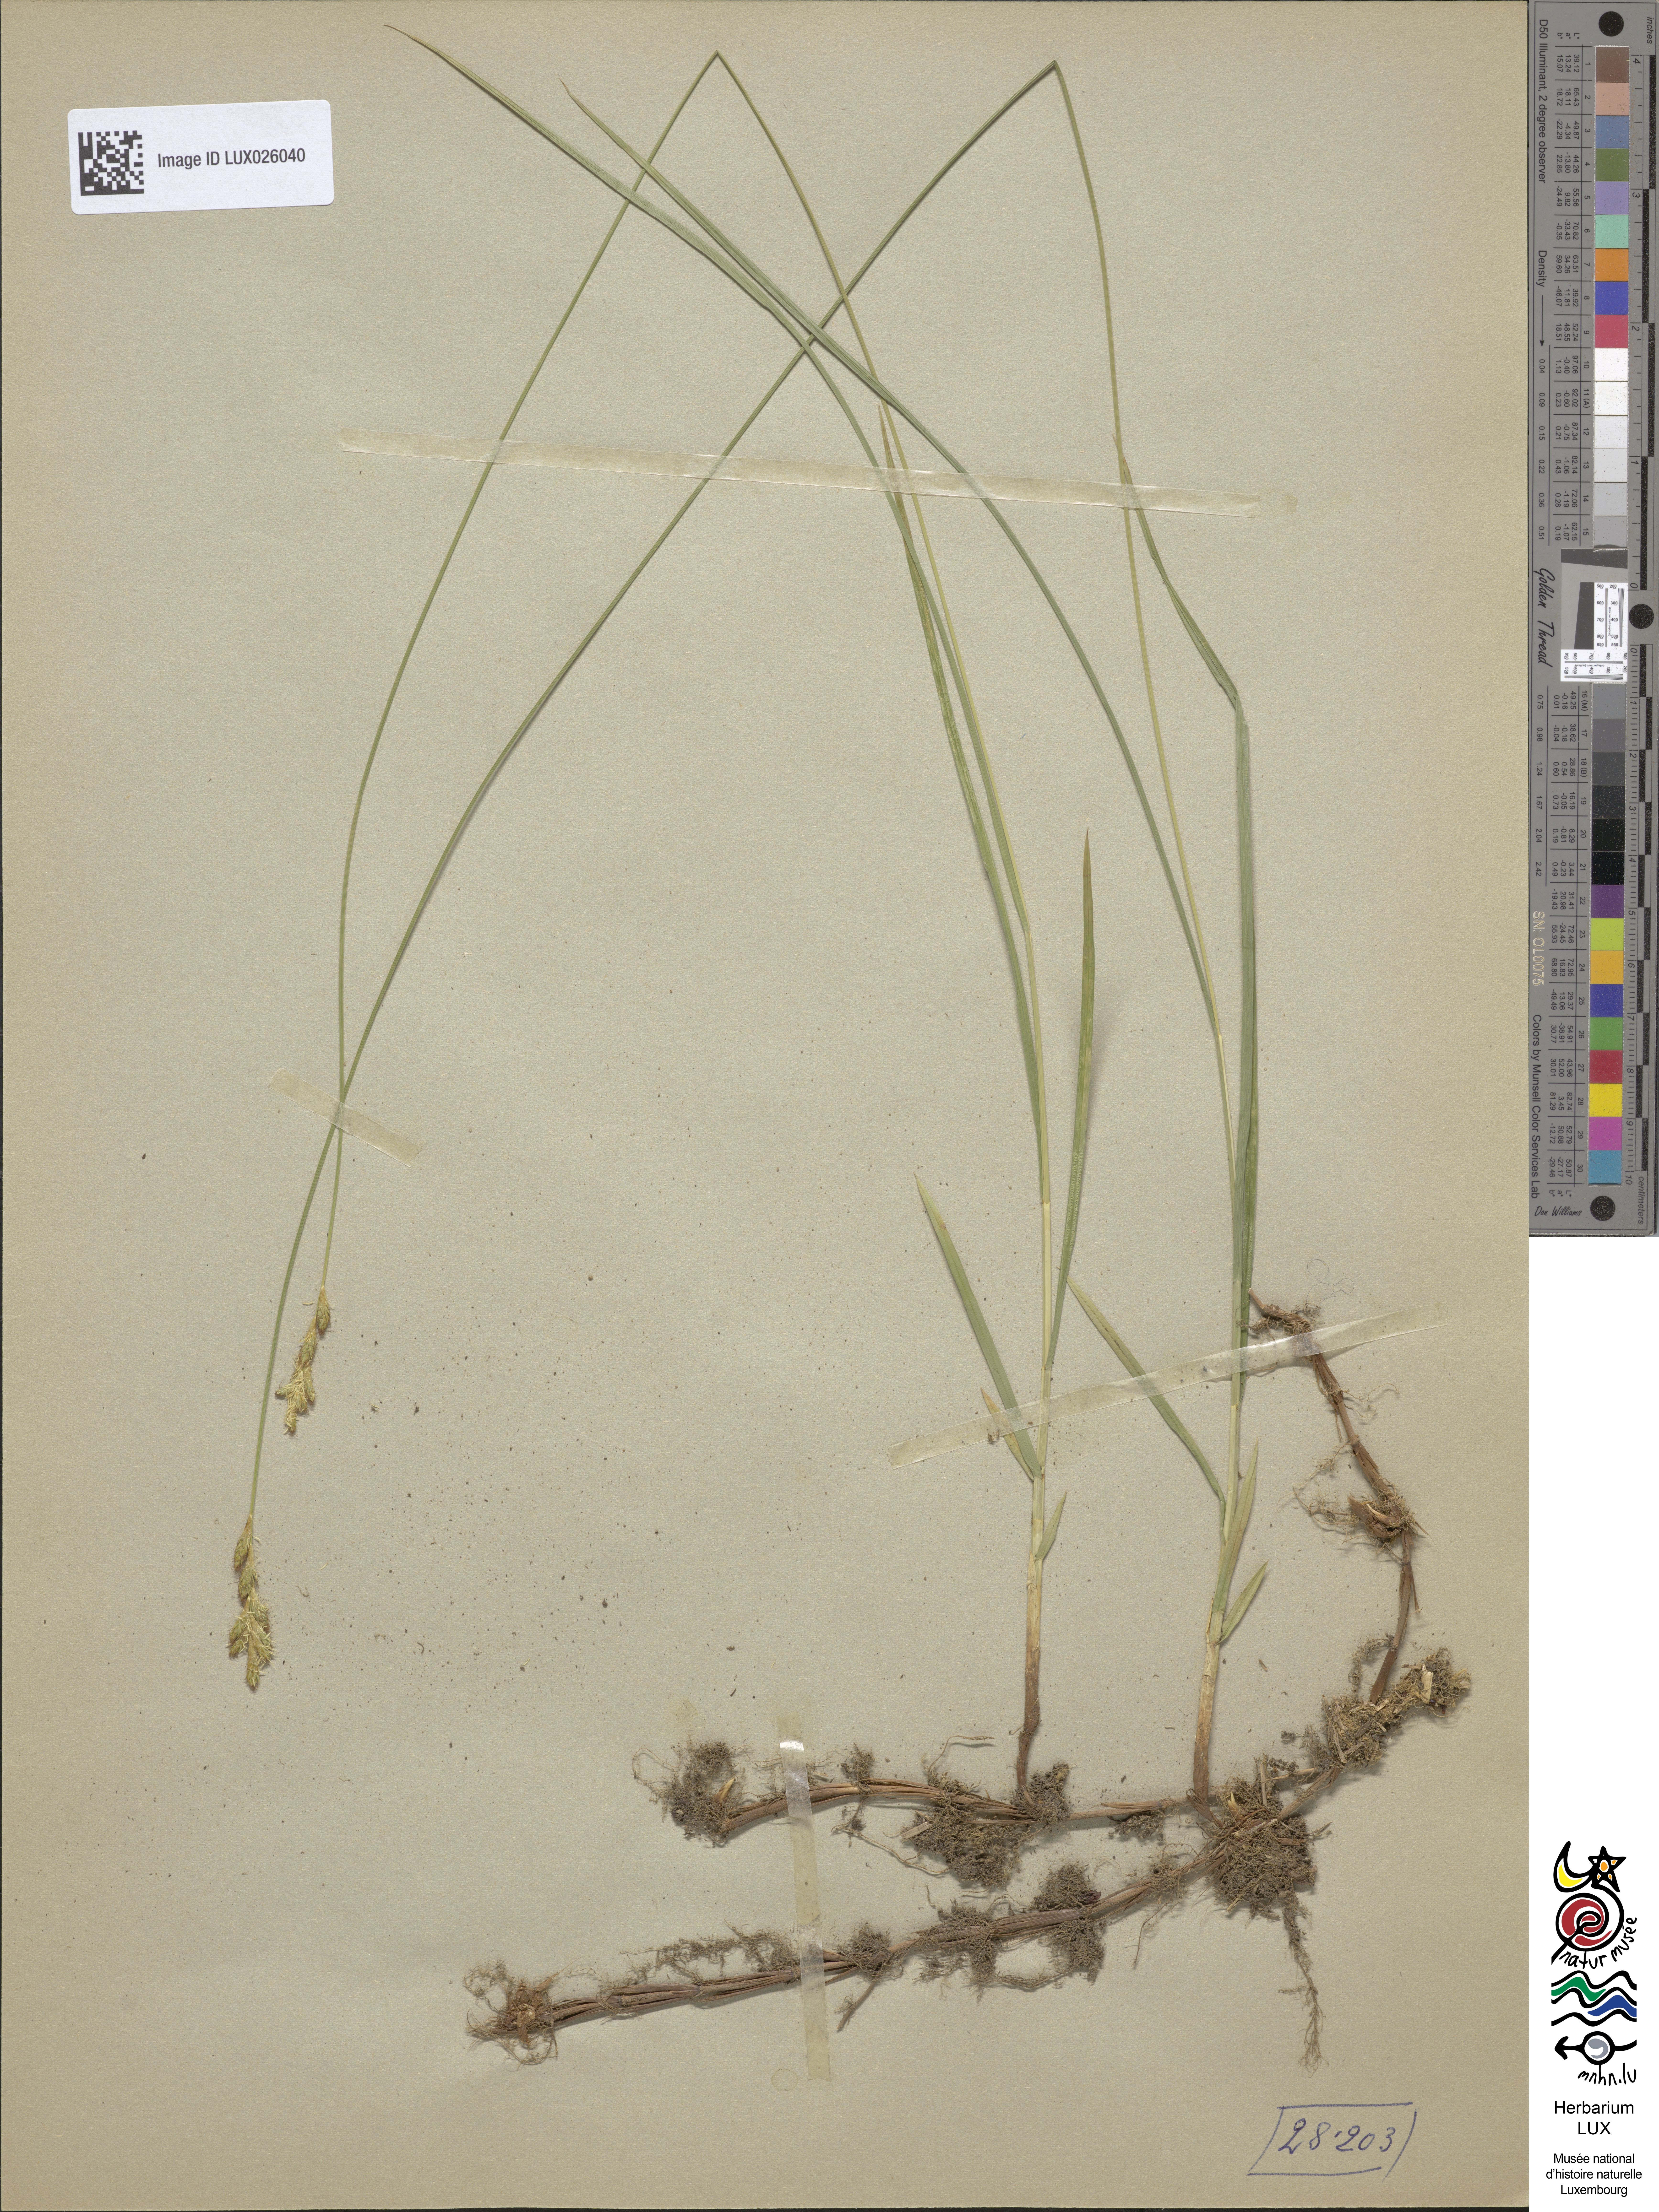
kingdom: Plantae
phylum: Tracheophyta
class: Liliopsida
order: Poales
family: Cyperaceae
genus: Carex
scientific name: Carex brizoides
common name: Quaking-grass sedge
